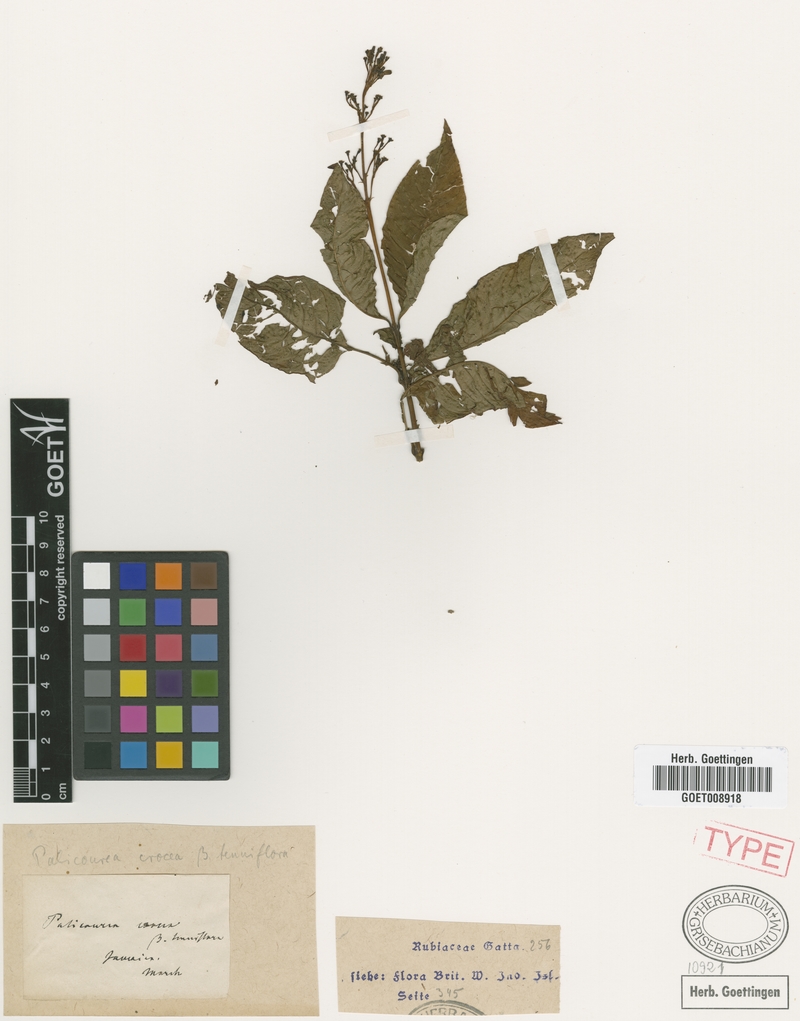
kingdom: Plantae
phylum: Tracheophyta
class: Magnoliopsida
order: Gentianales
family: Rubiaceae
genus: Palicourea
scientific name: Palicourea crocea
